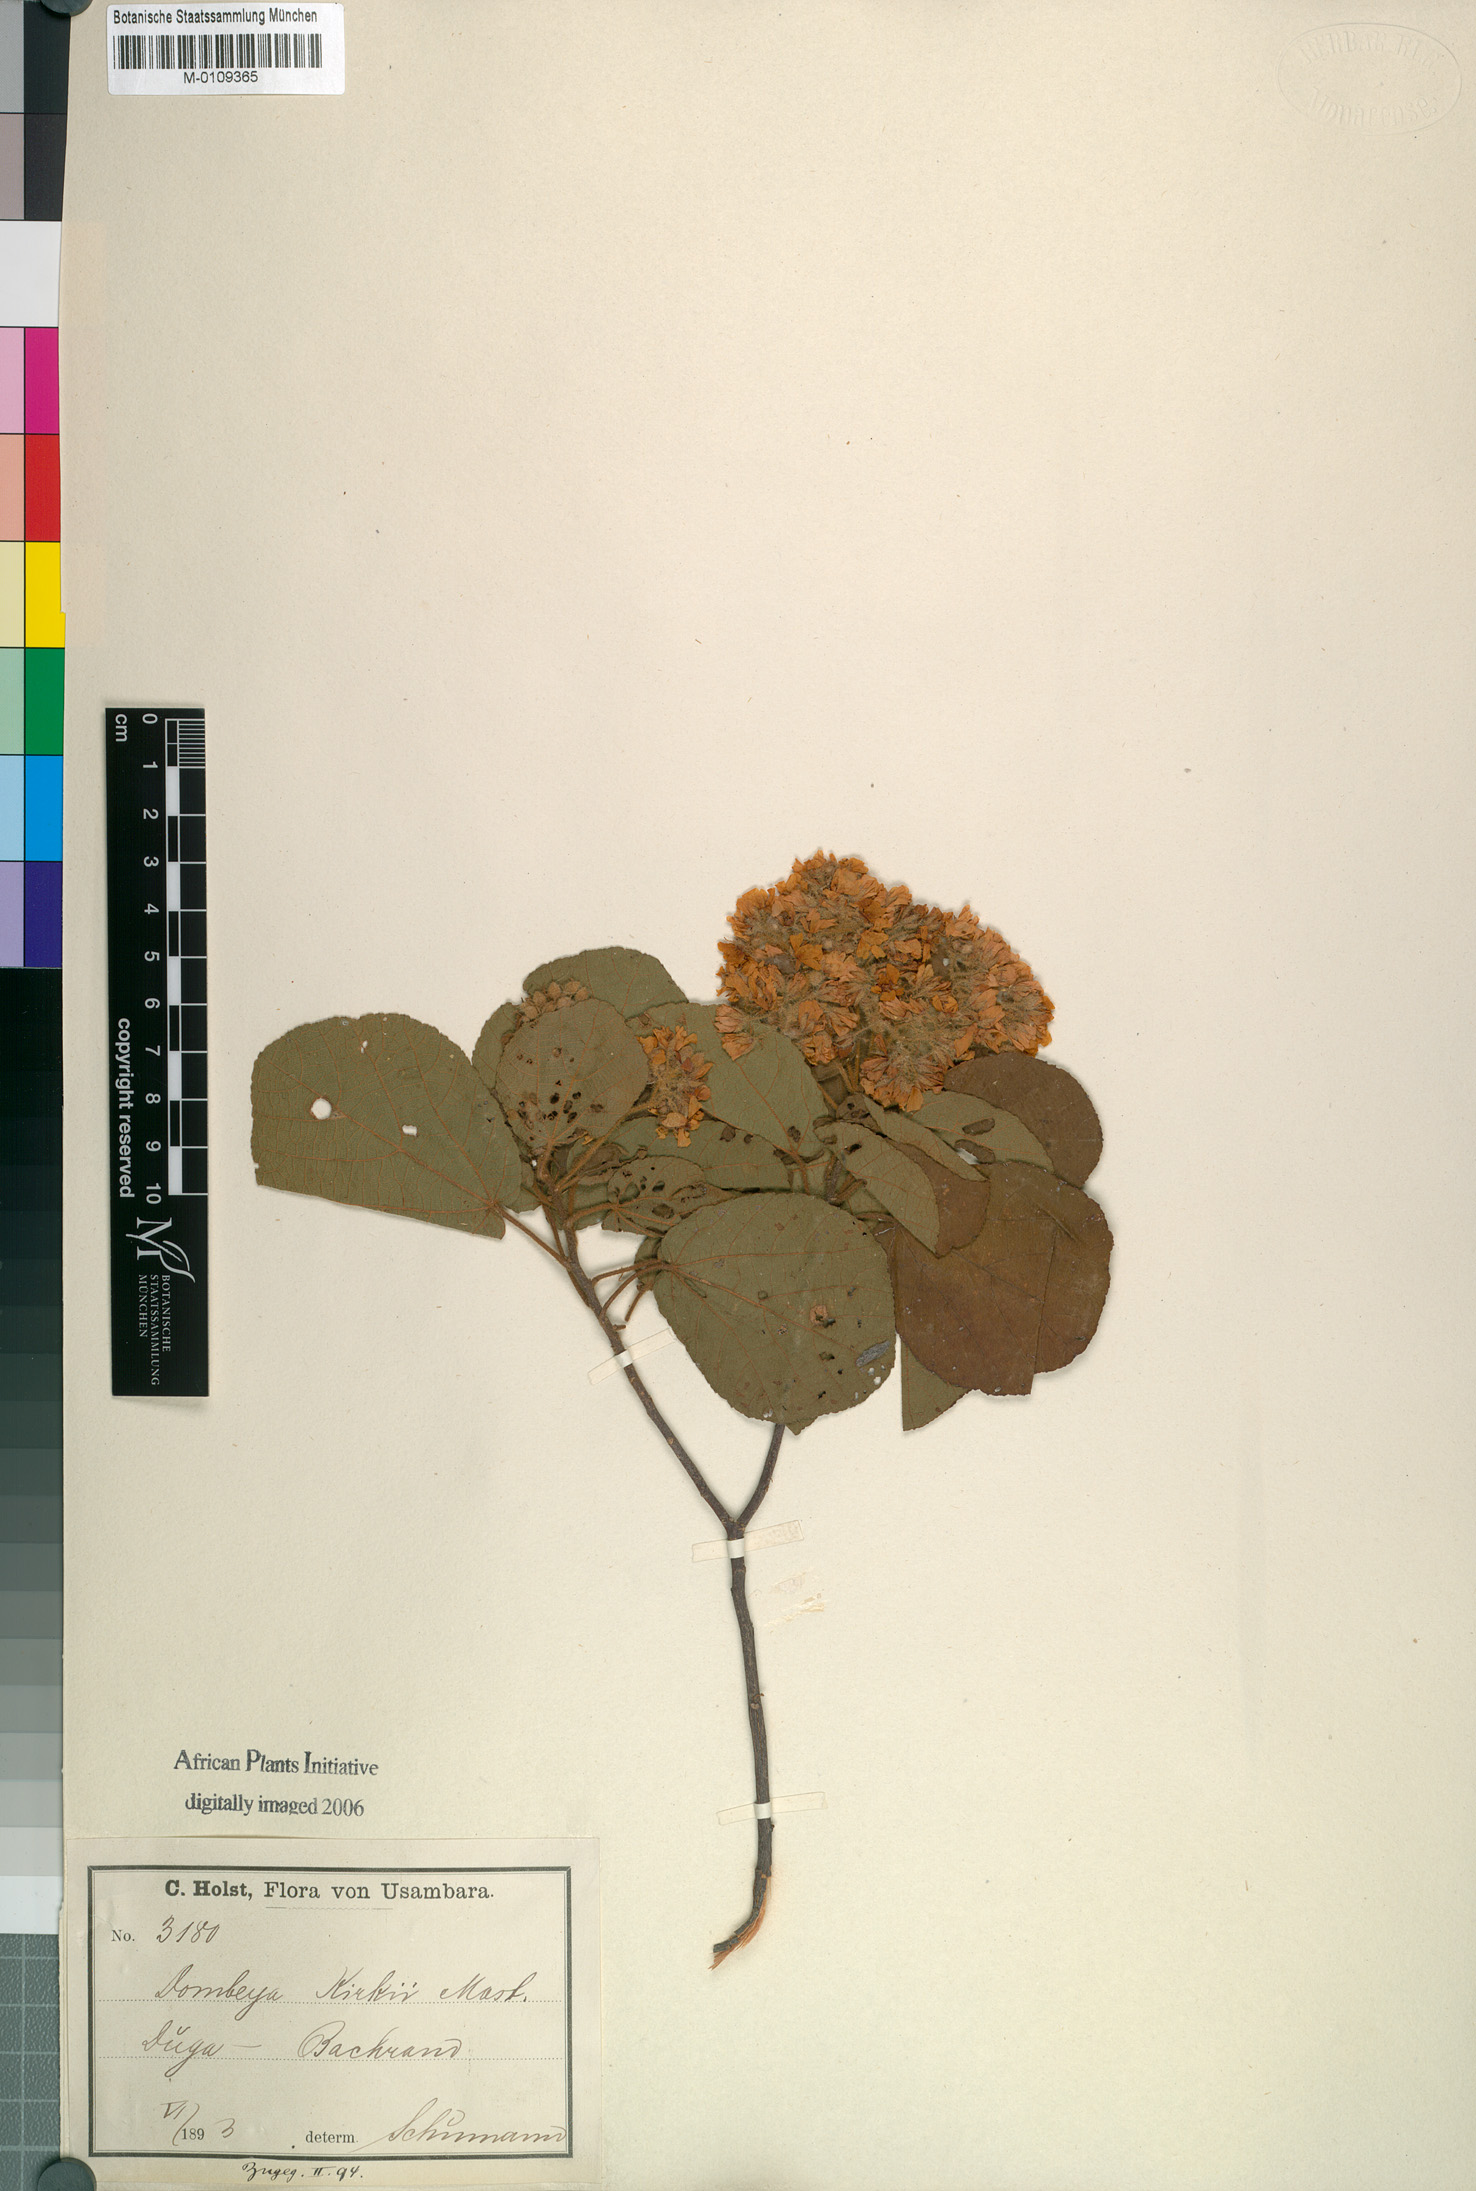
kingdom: Plantae
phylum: Tracheophyta
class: Magnoliopsida
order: Malvales
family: Malvaceae
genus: Dombeya
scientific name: Dombeya kirkii
